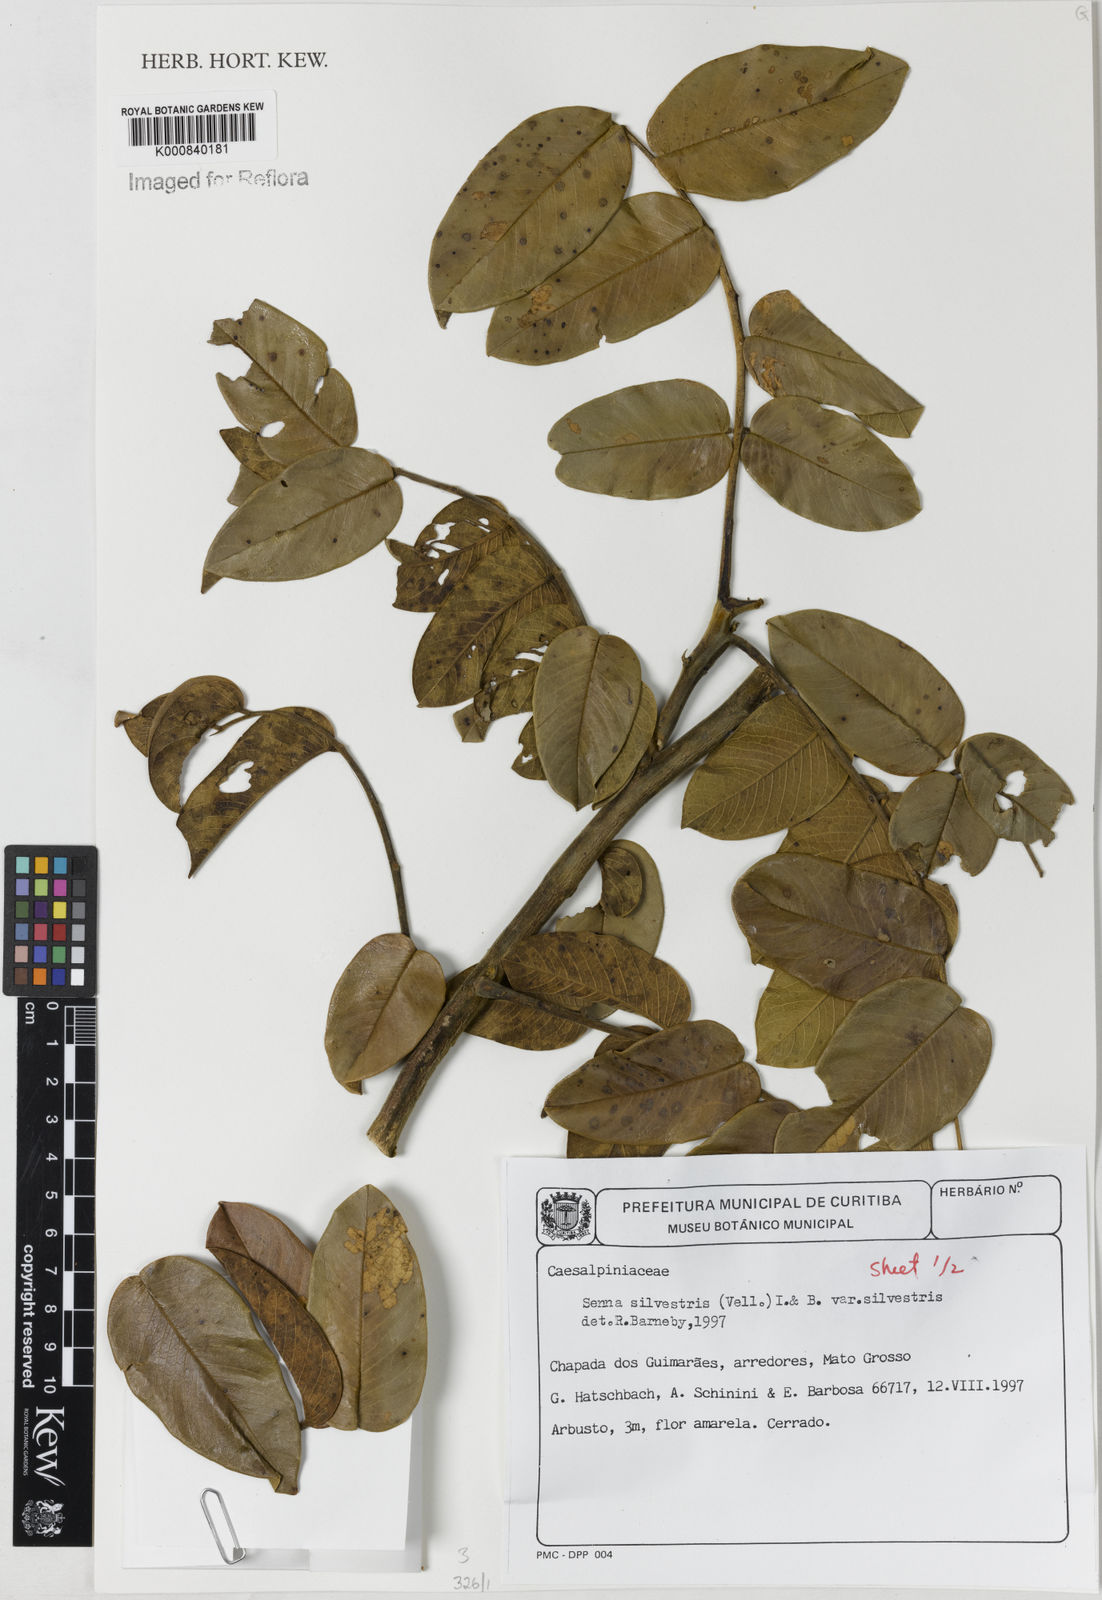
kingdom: Plantae
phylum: Tracheophyta
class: Magnoliopsida
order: Fabales
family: Fabaceae
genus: Senna
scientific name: Senna silvestris
